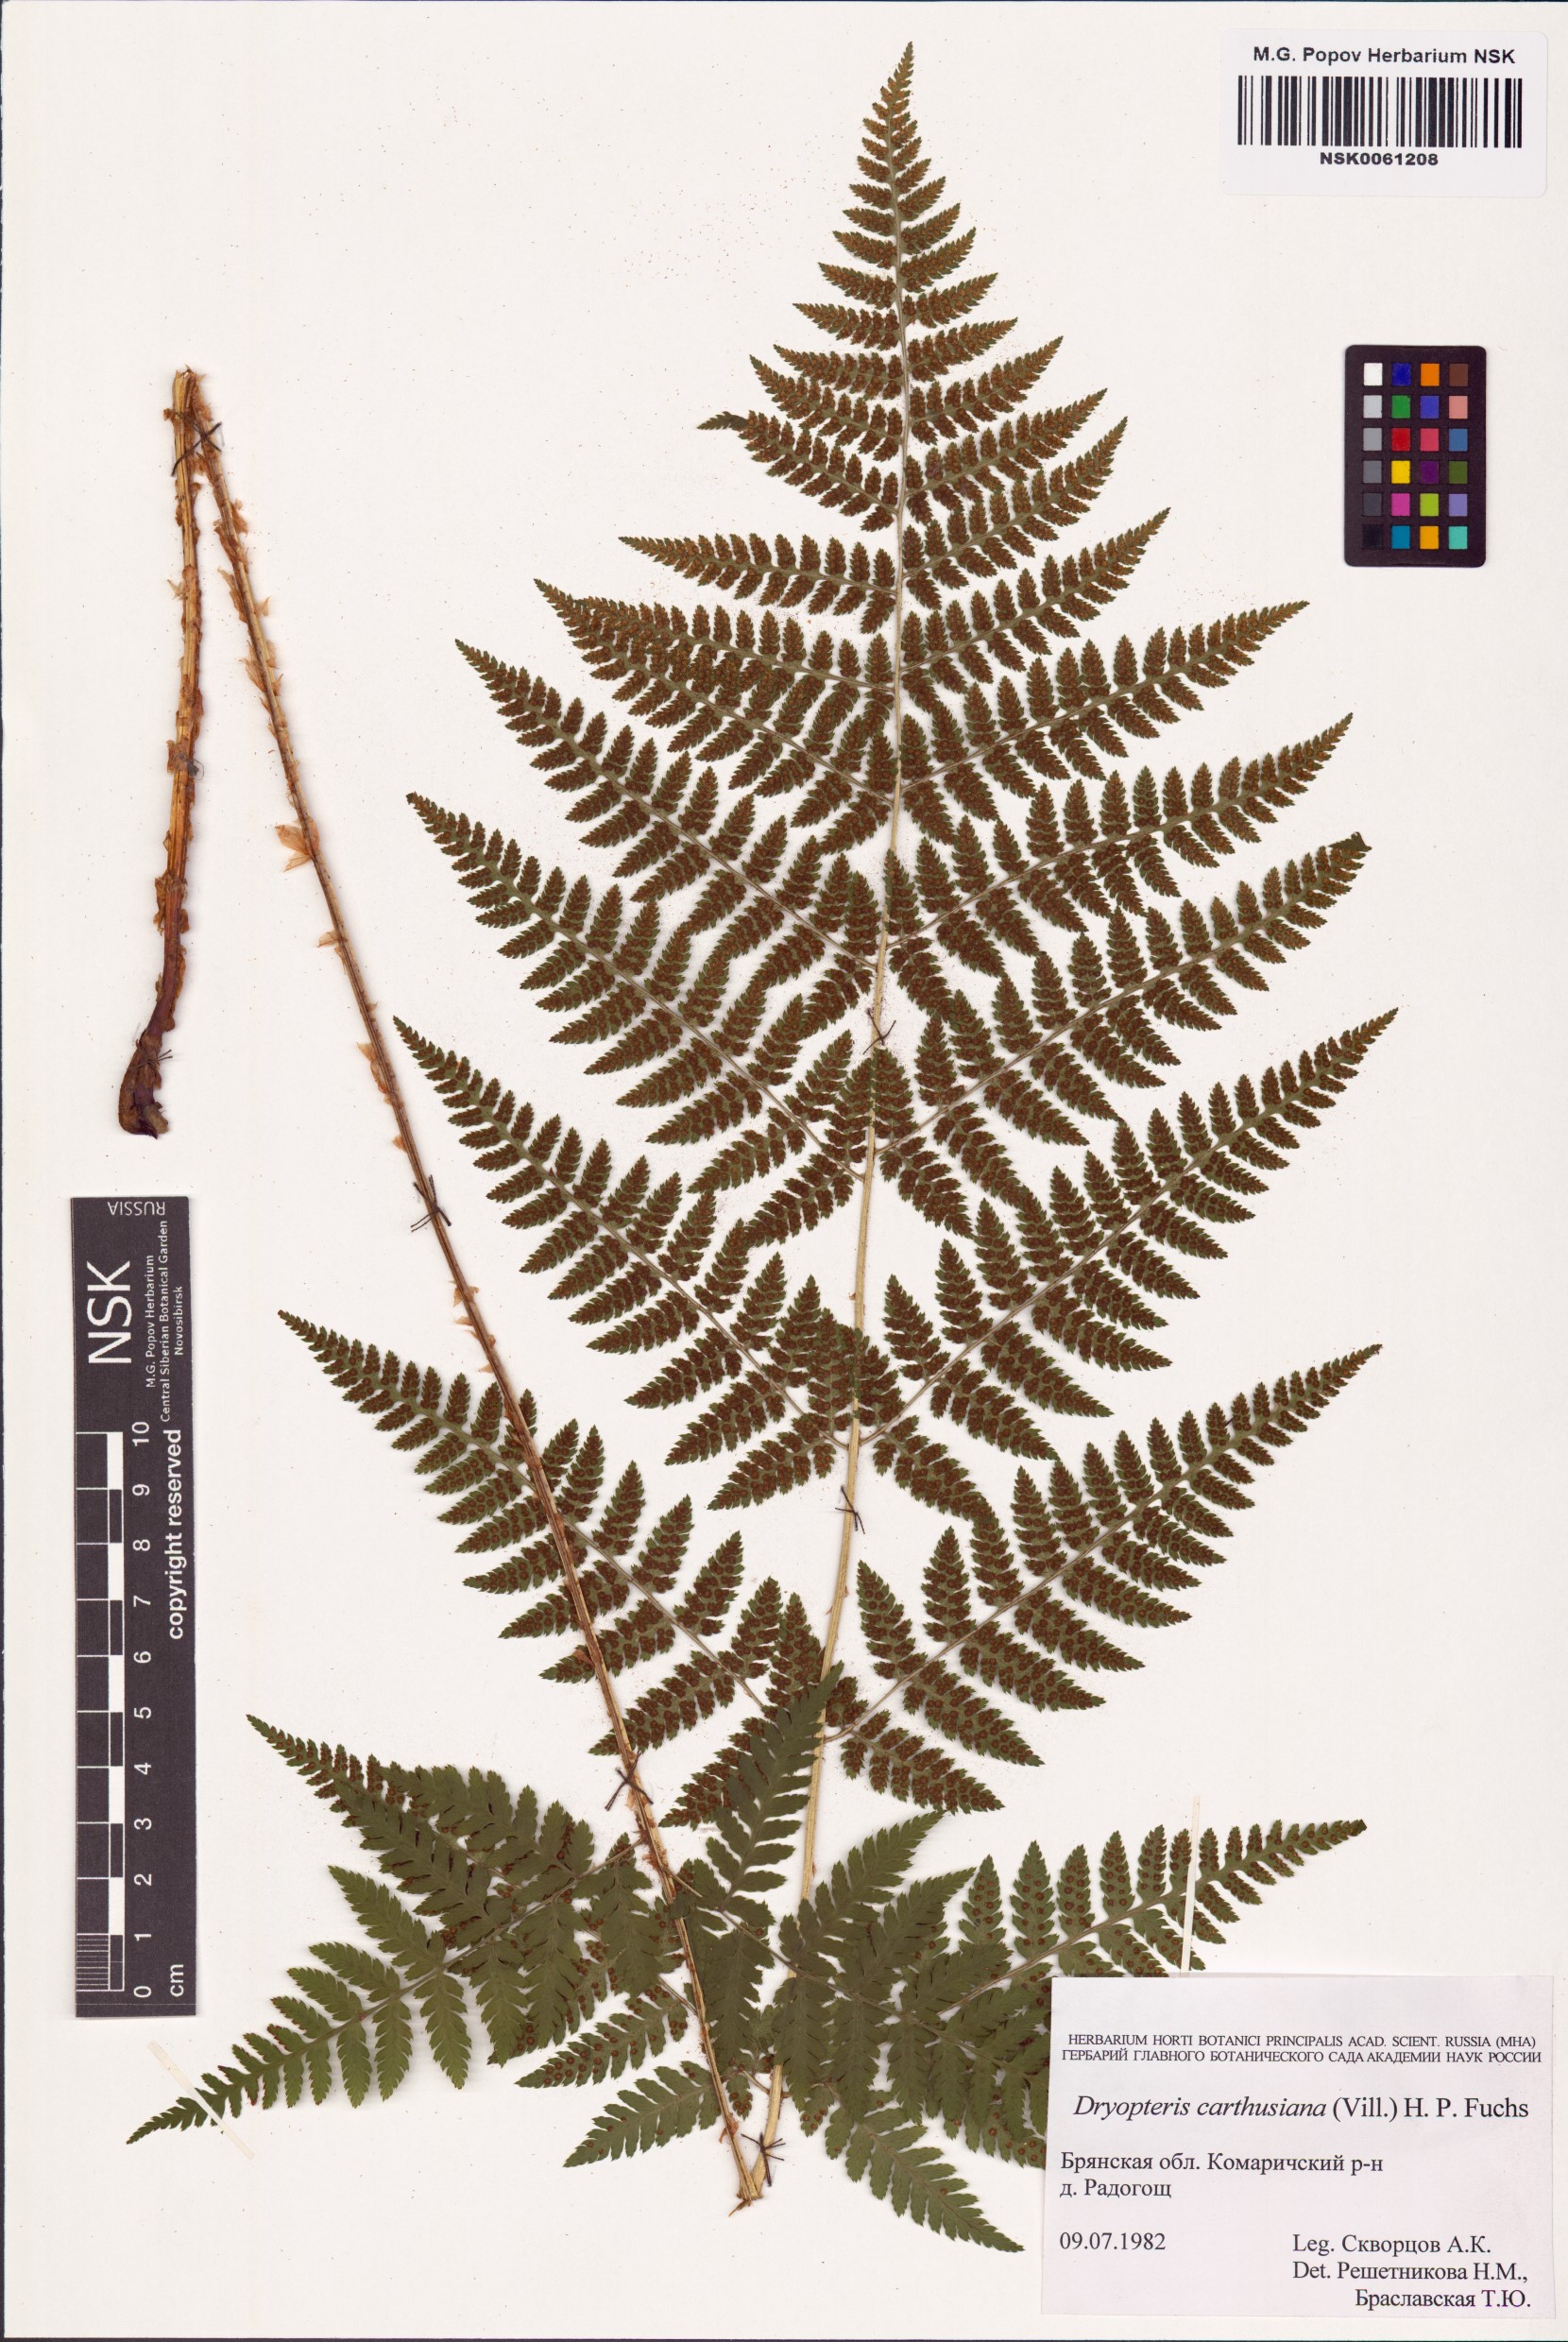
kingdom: Plantae
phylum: Tracheophyta
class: Polypodiopsida
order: Polypodiales
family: Dryopteridaceae
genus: Dryopteris
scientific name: Dryopteris carthusiana
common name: Narrow buckler-fern
